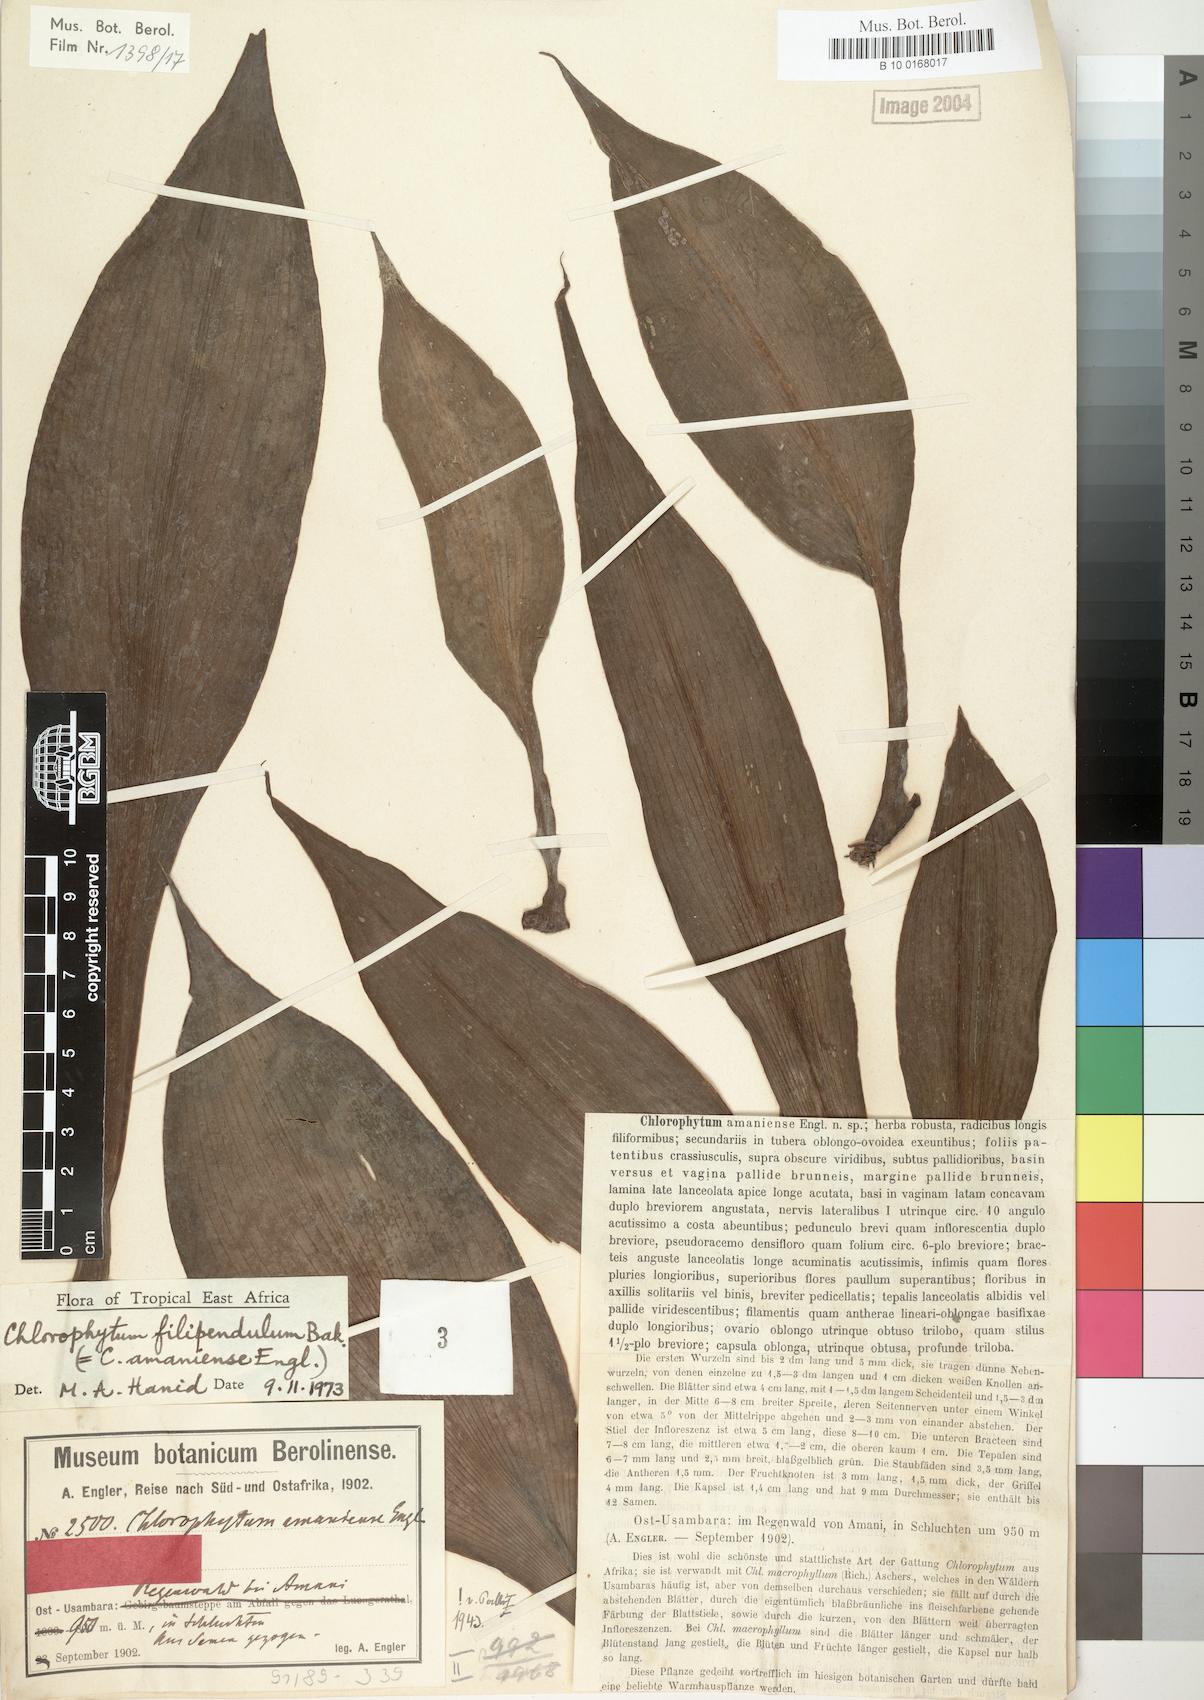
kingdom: Plantae
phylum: Tracheophyta
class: Liliopsida
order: Asparagales
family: Asparagaceae
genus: Chlorophytum
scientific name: Chlorophytum filipendulum
